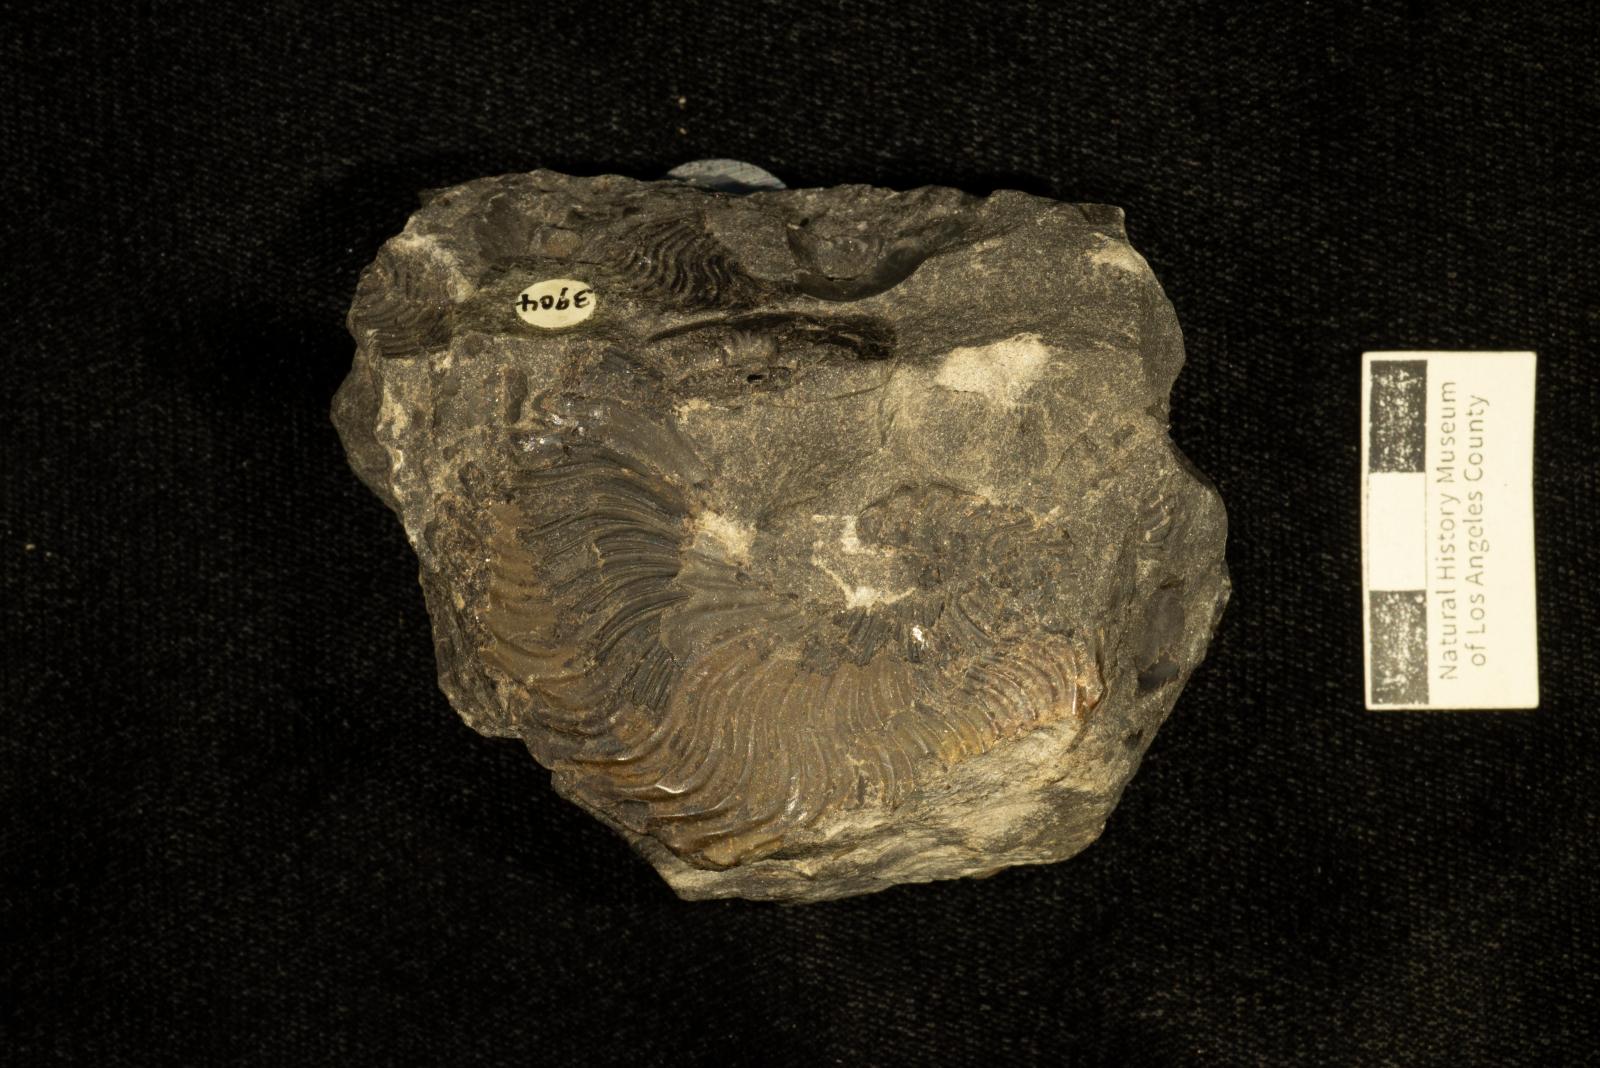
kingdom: Animalia
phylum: Mollusca
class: Cephalopoda
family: Placenticeratidae
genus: Metaplacenticeras
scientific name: Metaplacenticeras Placenticeras pacificum
